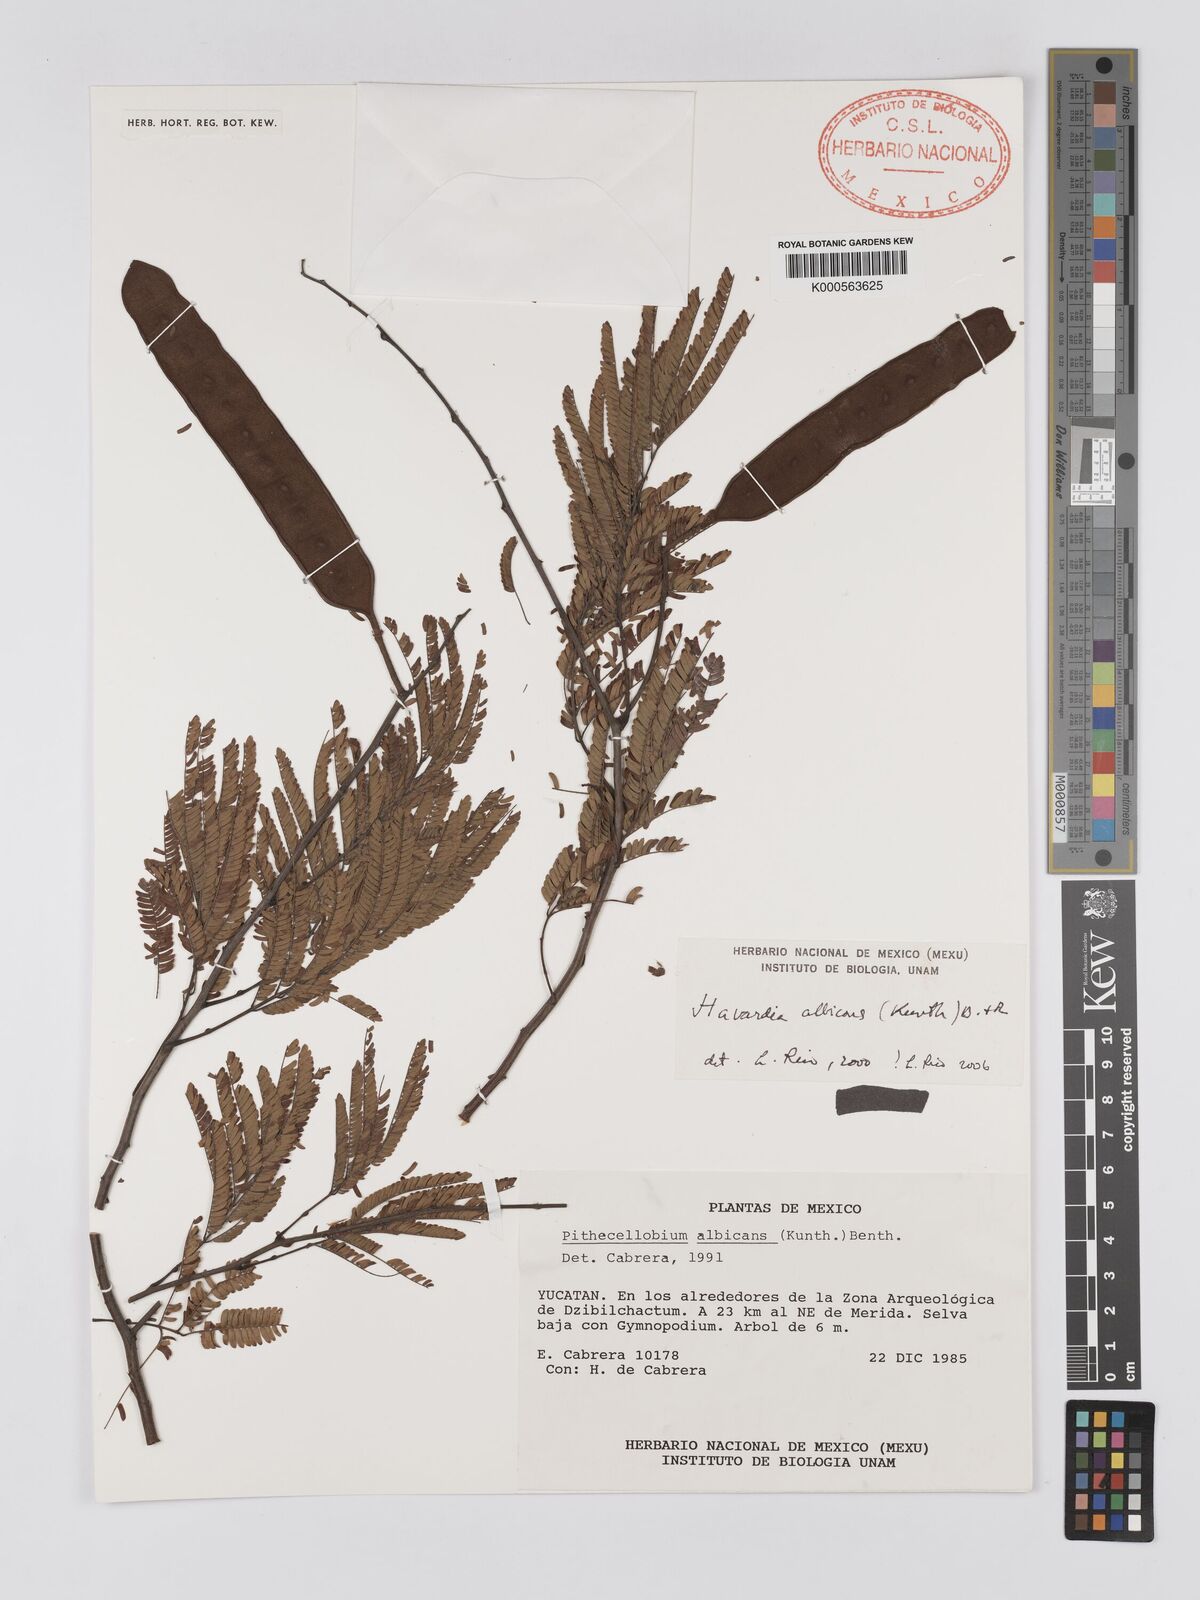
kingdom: Plantae
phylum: Tracheophyta
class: Magnoliopsida
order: Fabales
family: Fabaceae
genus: Havardia
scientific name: Havardia pallens
